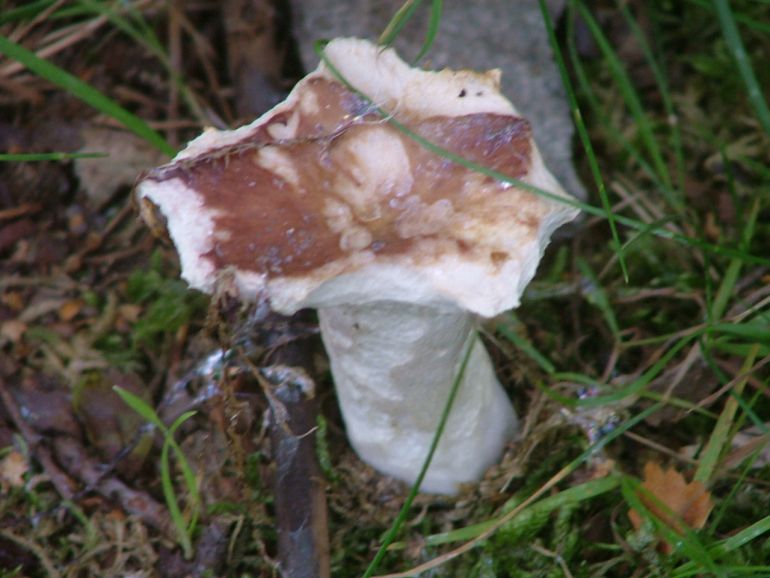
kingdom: Fungi
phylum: Basidiomycota
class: Agaricomycetes
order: Russulales
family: Russulaceae
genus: Russula
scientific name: Russula vesca
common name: spiselig skørhat
